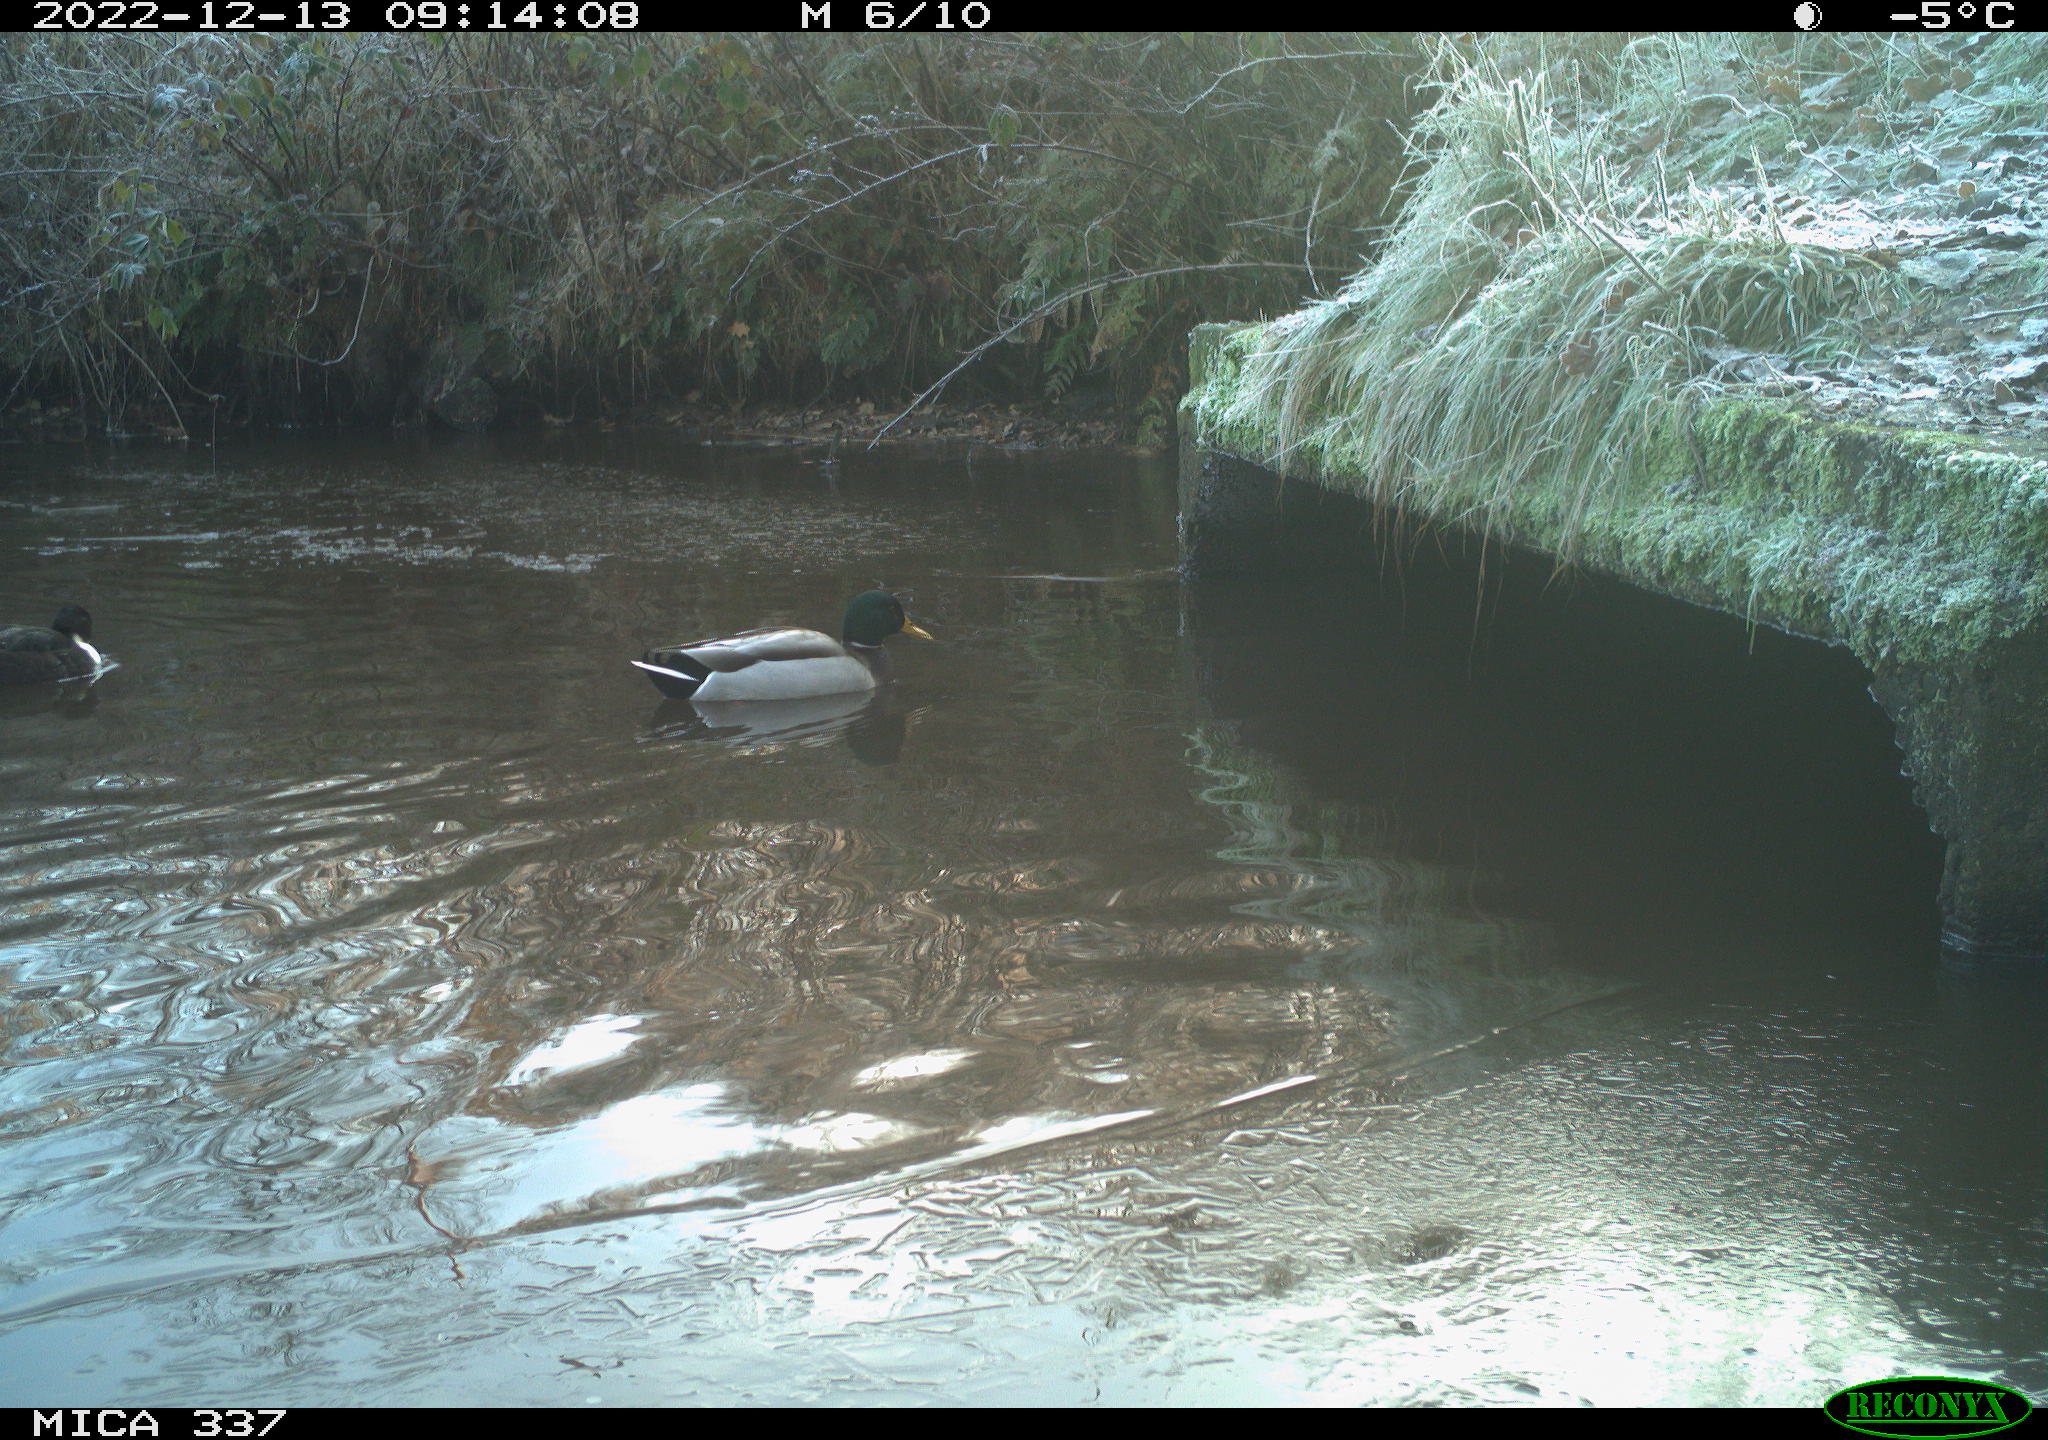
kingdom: Animalia
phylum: Chordata
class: Aves
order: Anseriformes
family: Anatidae
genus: Anas
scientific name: Anas
